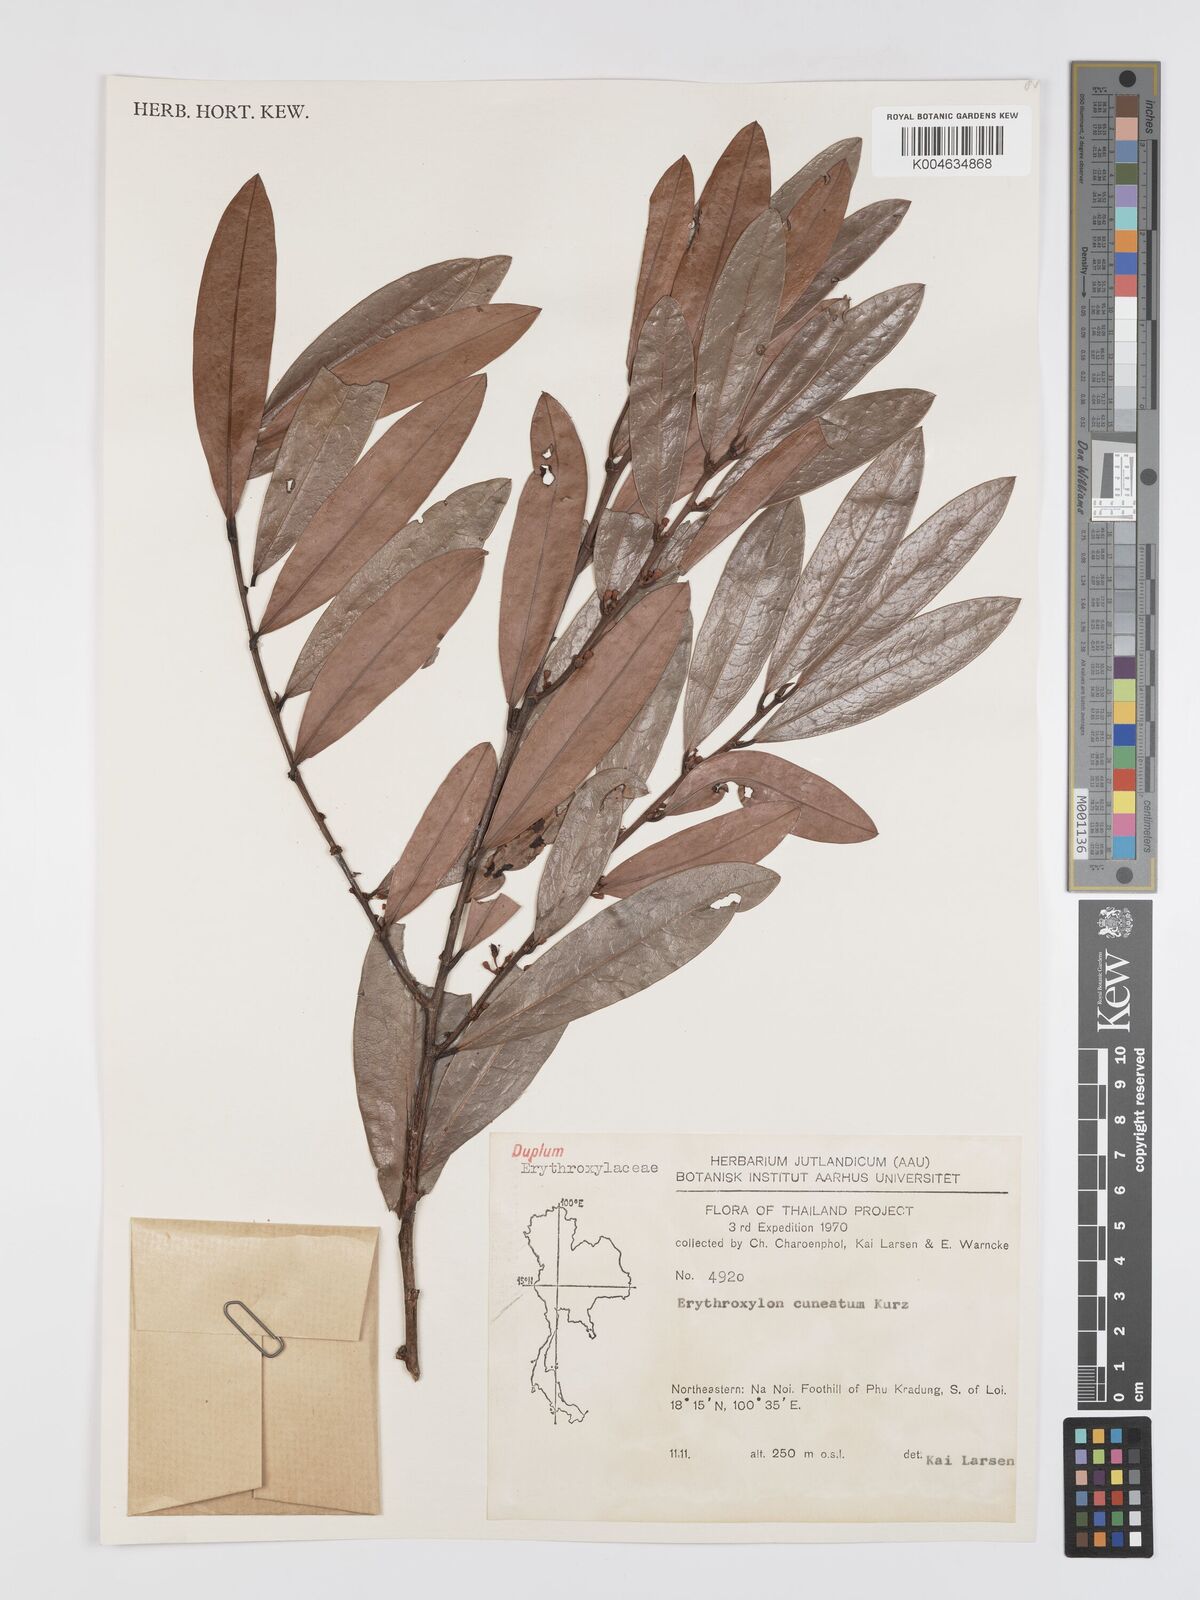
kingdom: Plantae
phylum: Tracheophyta
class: Magnoliopsida
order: Malpighiales
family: Erythroxylaceae
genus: Erythroxylum
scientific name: Erythroxylum cuneatum
